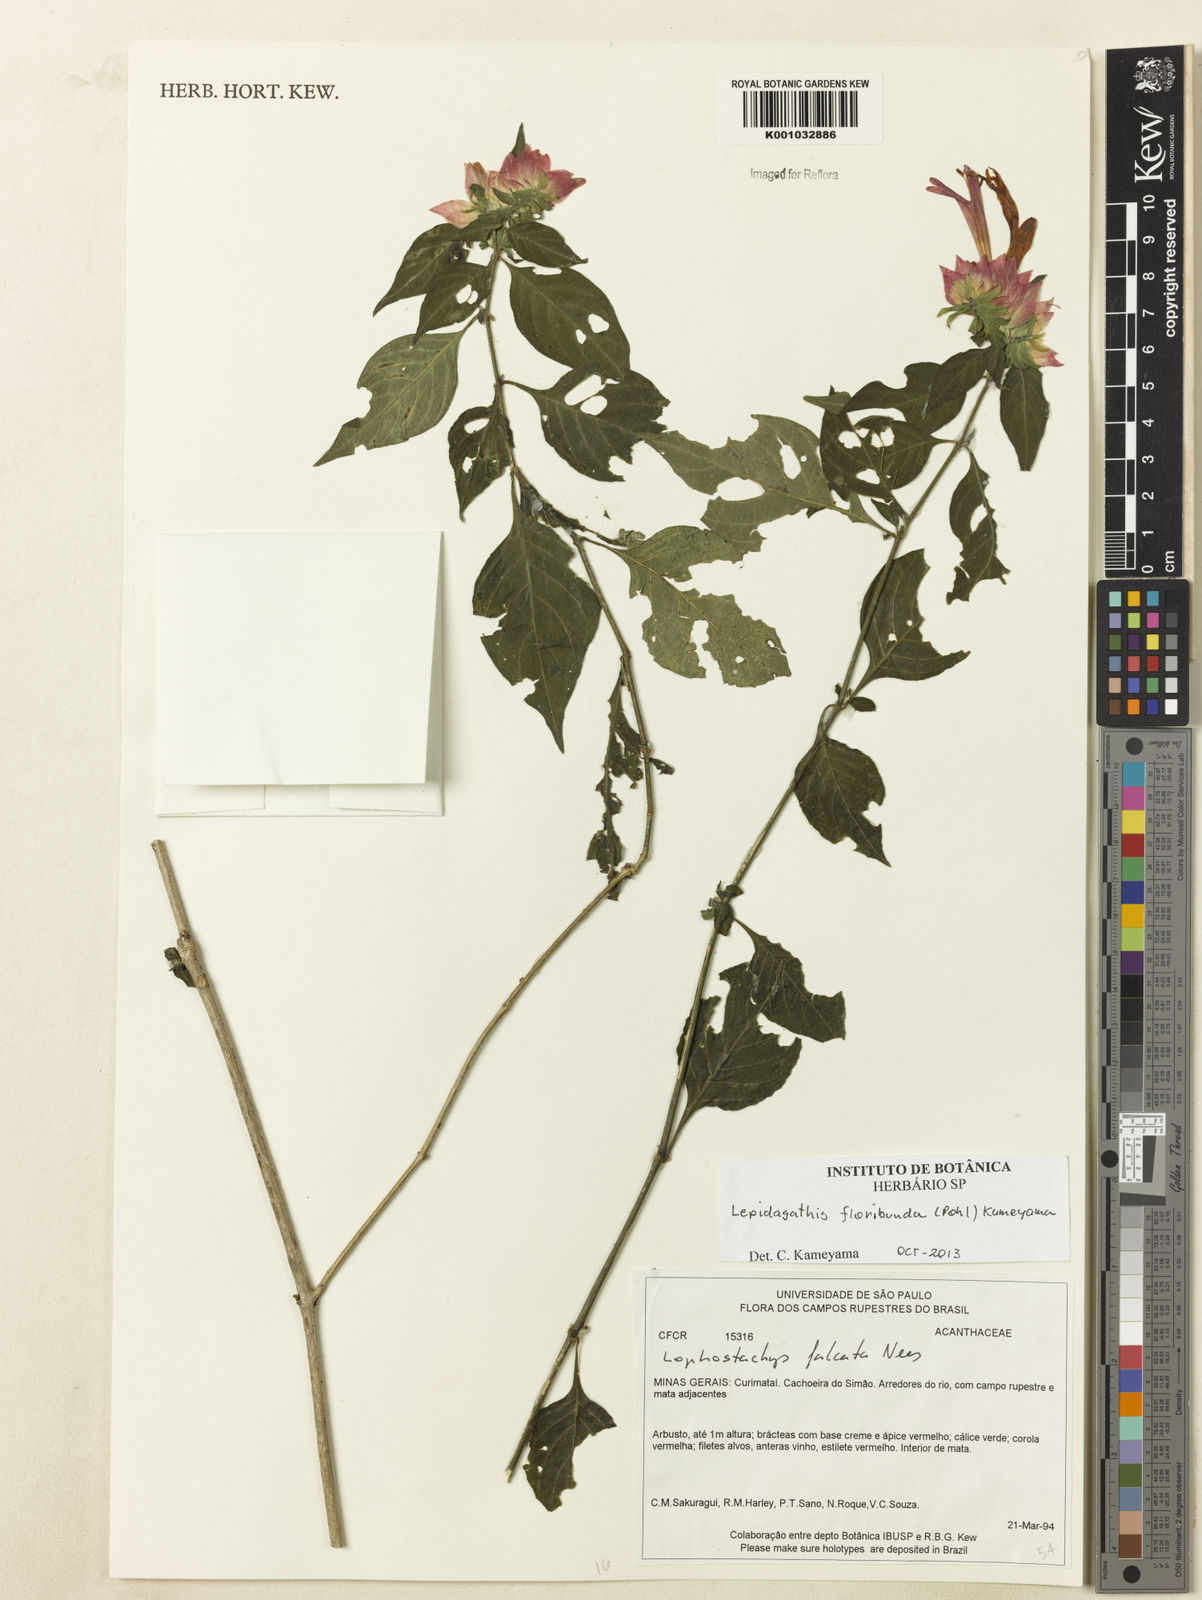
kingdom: Plantae
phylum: Tracheophyta
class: Magnoliopsida
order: Lamiales
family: Acanthaceae
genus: Lepidagathis
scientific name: Lepidagathis floribunda
